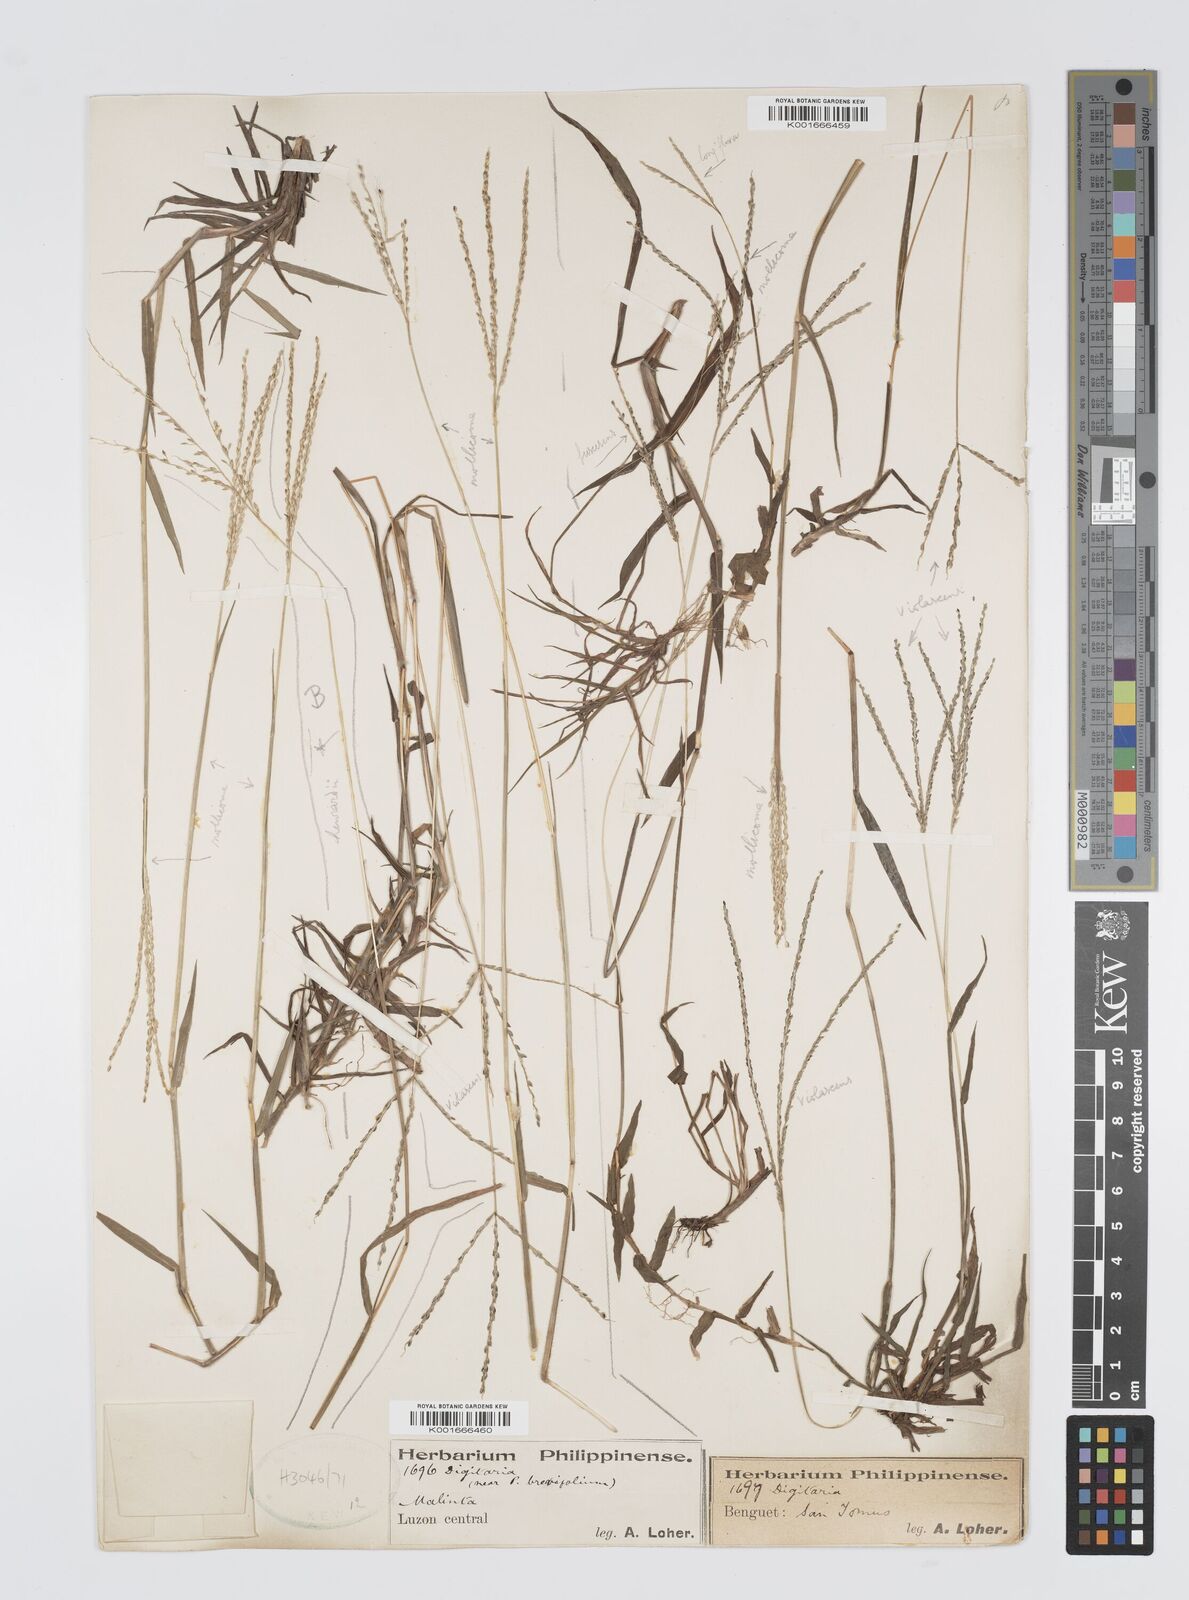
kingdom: Plantae
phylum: Tracheophyta
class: Liliopsida
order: Poales
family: Poaceae
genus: Digitaria
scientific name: Digitaria violascens
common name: Violet crabgrass
